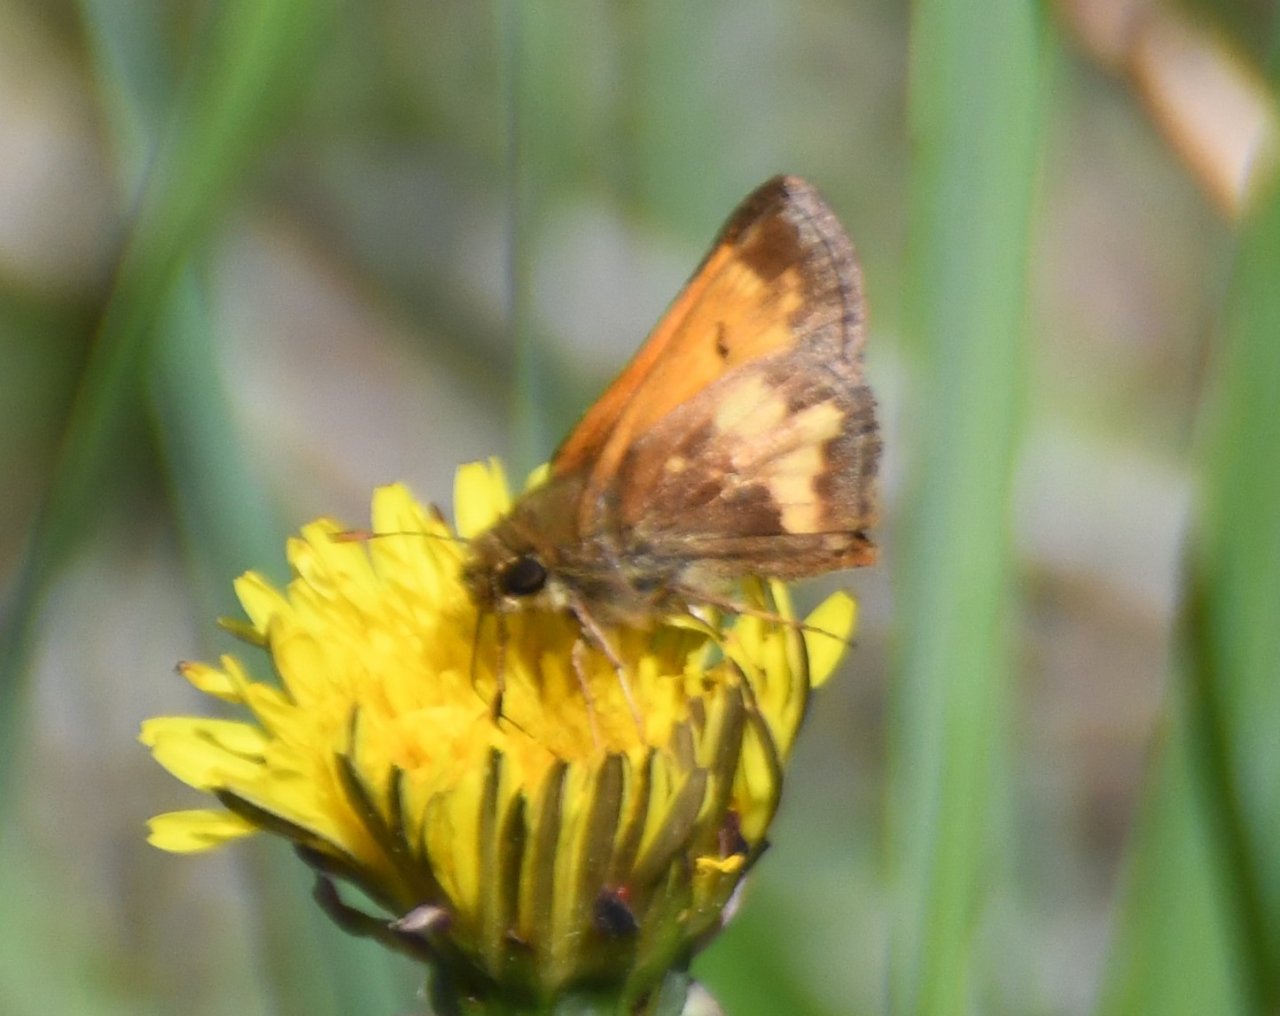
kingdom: Animalia
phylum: Arthropoda
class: Insecta
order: Lepidoptera
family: Hesperiidae
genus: Lon
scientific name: Lon hobomok
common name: Hobomok Skipper
